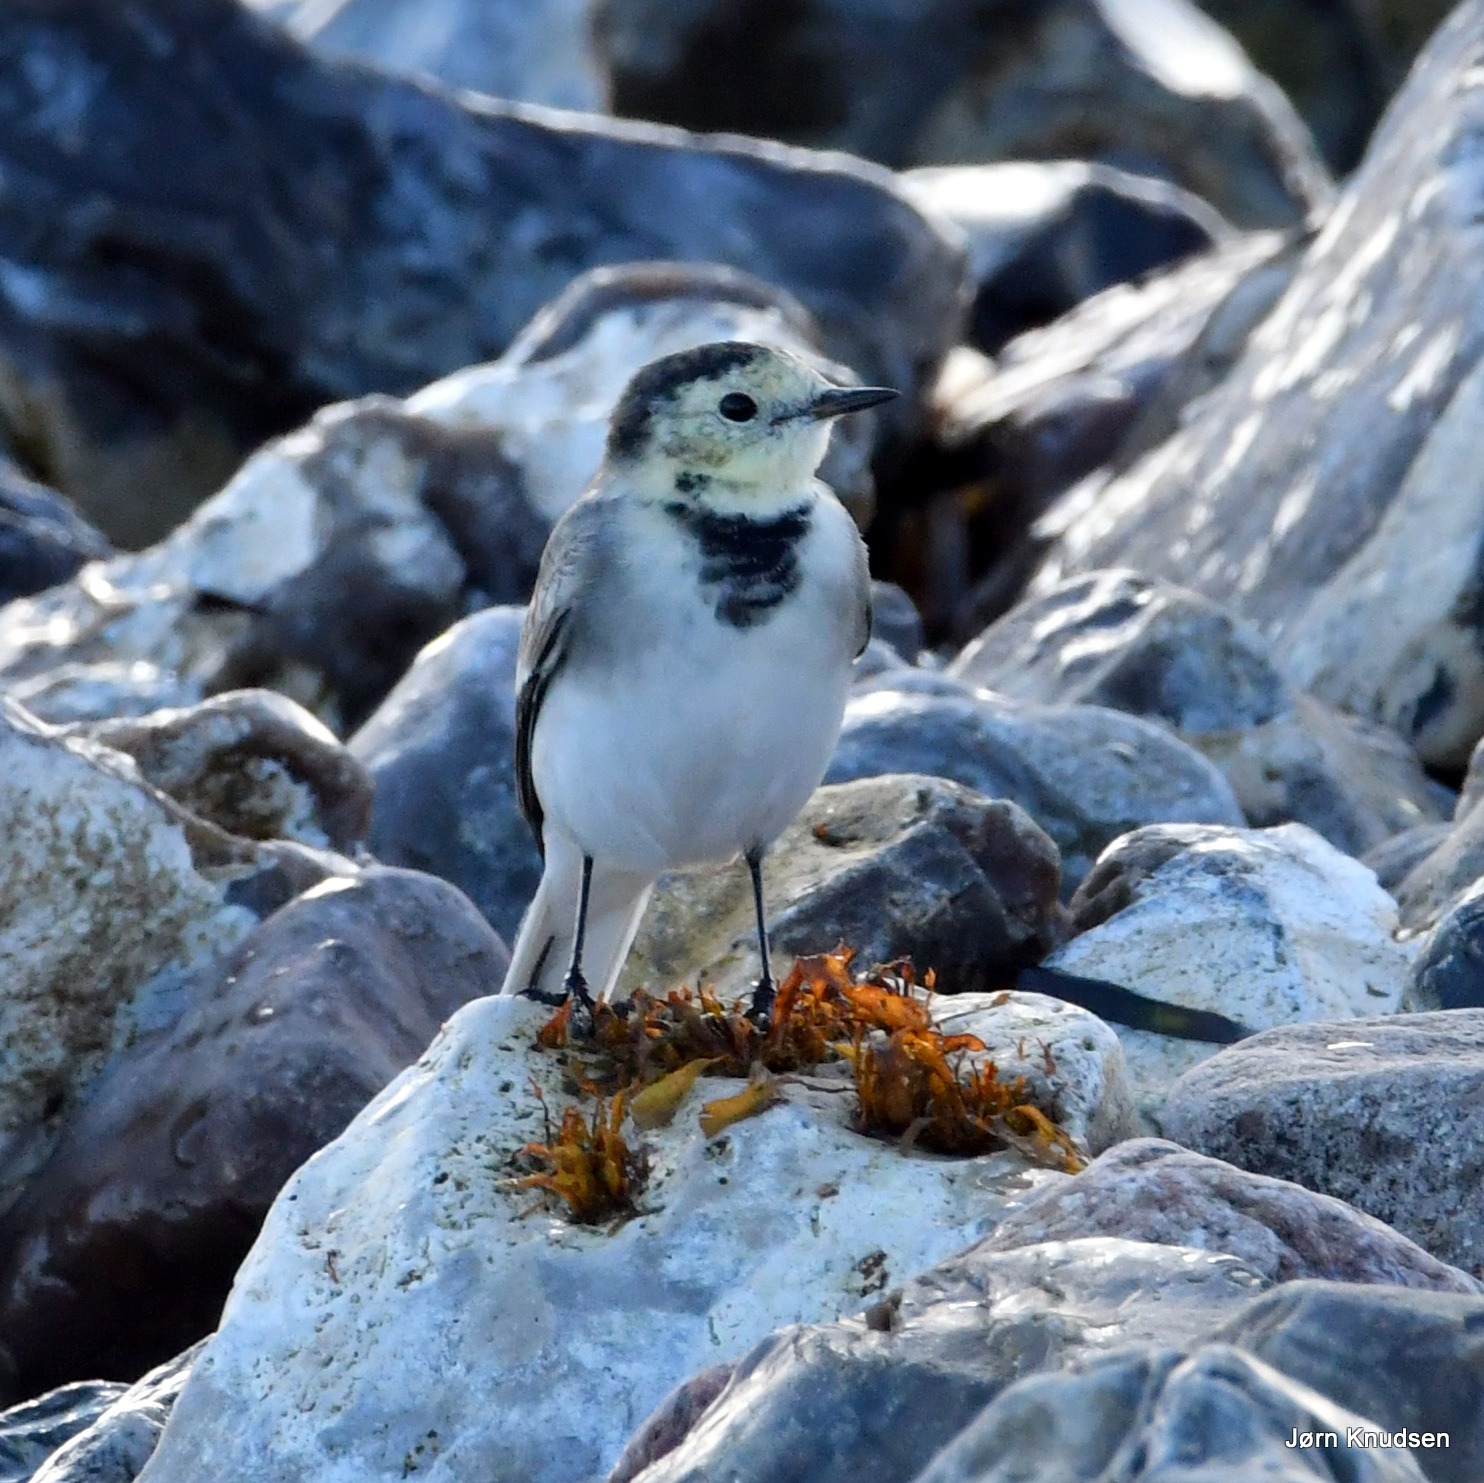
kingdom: Animalia
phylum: Chordata
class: Aves
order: Passeriformes
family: Motacillidae
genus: Motacilla
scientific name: Motacilla alba
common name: Hvid vipstjert
